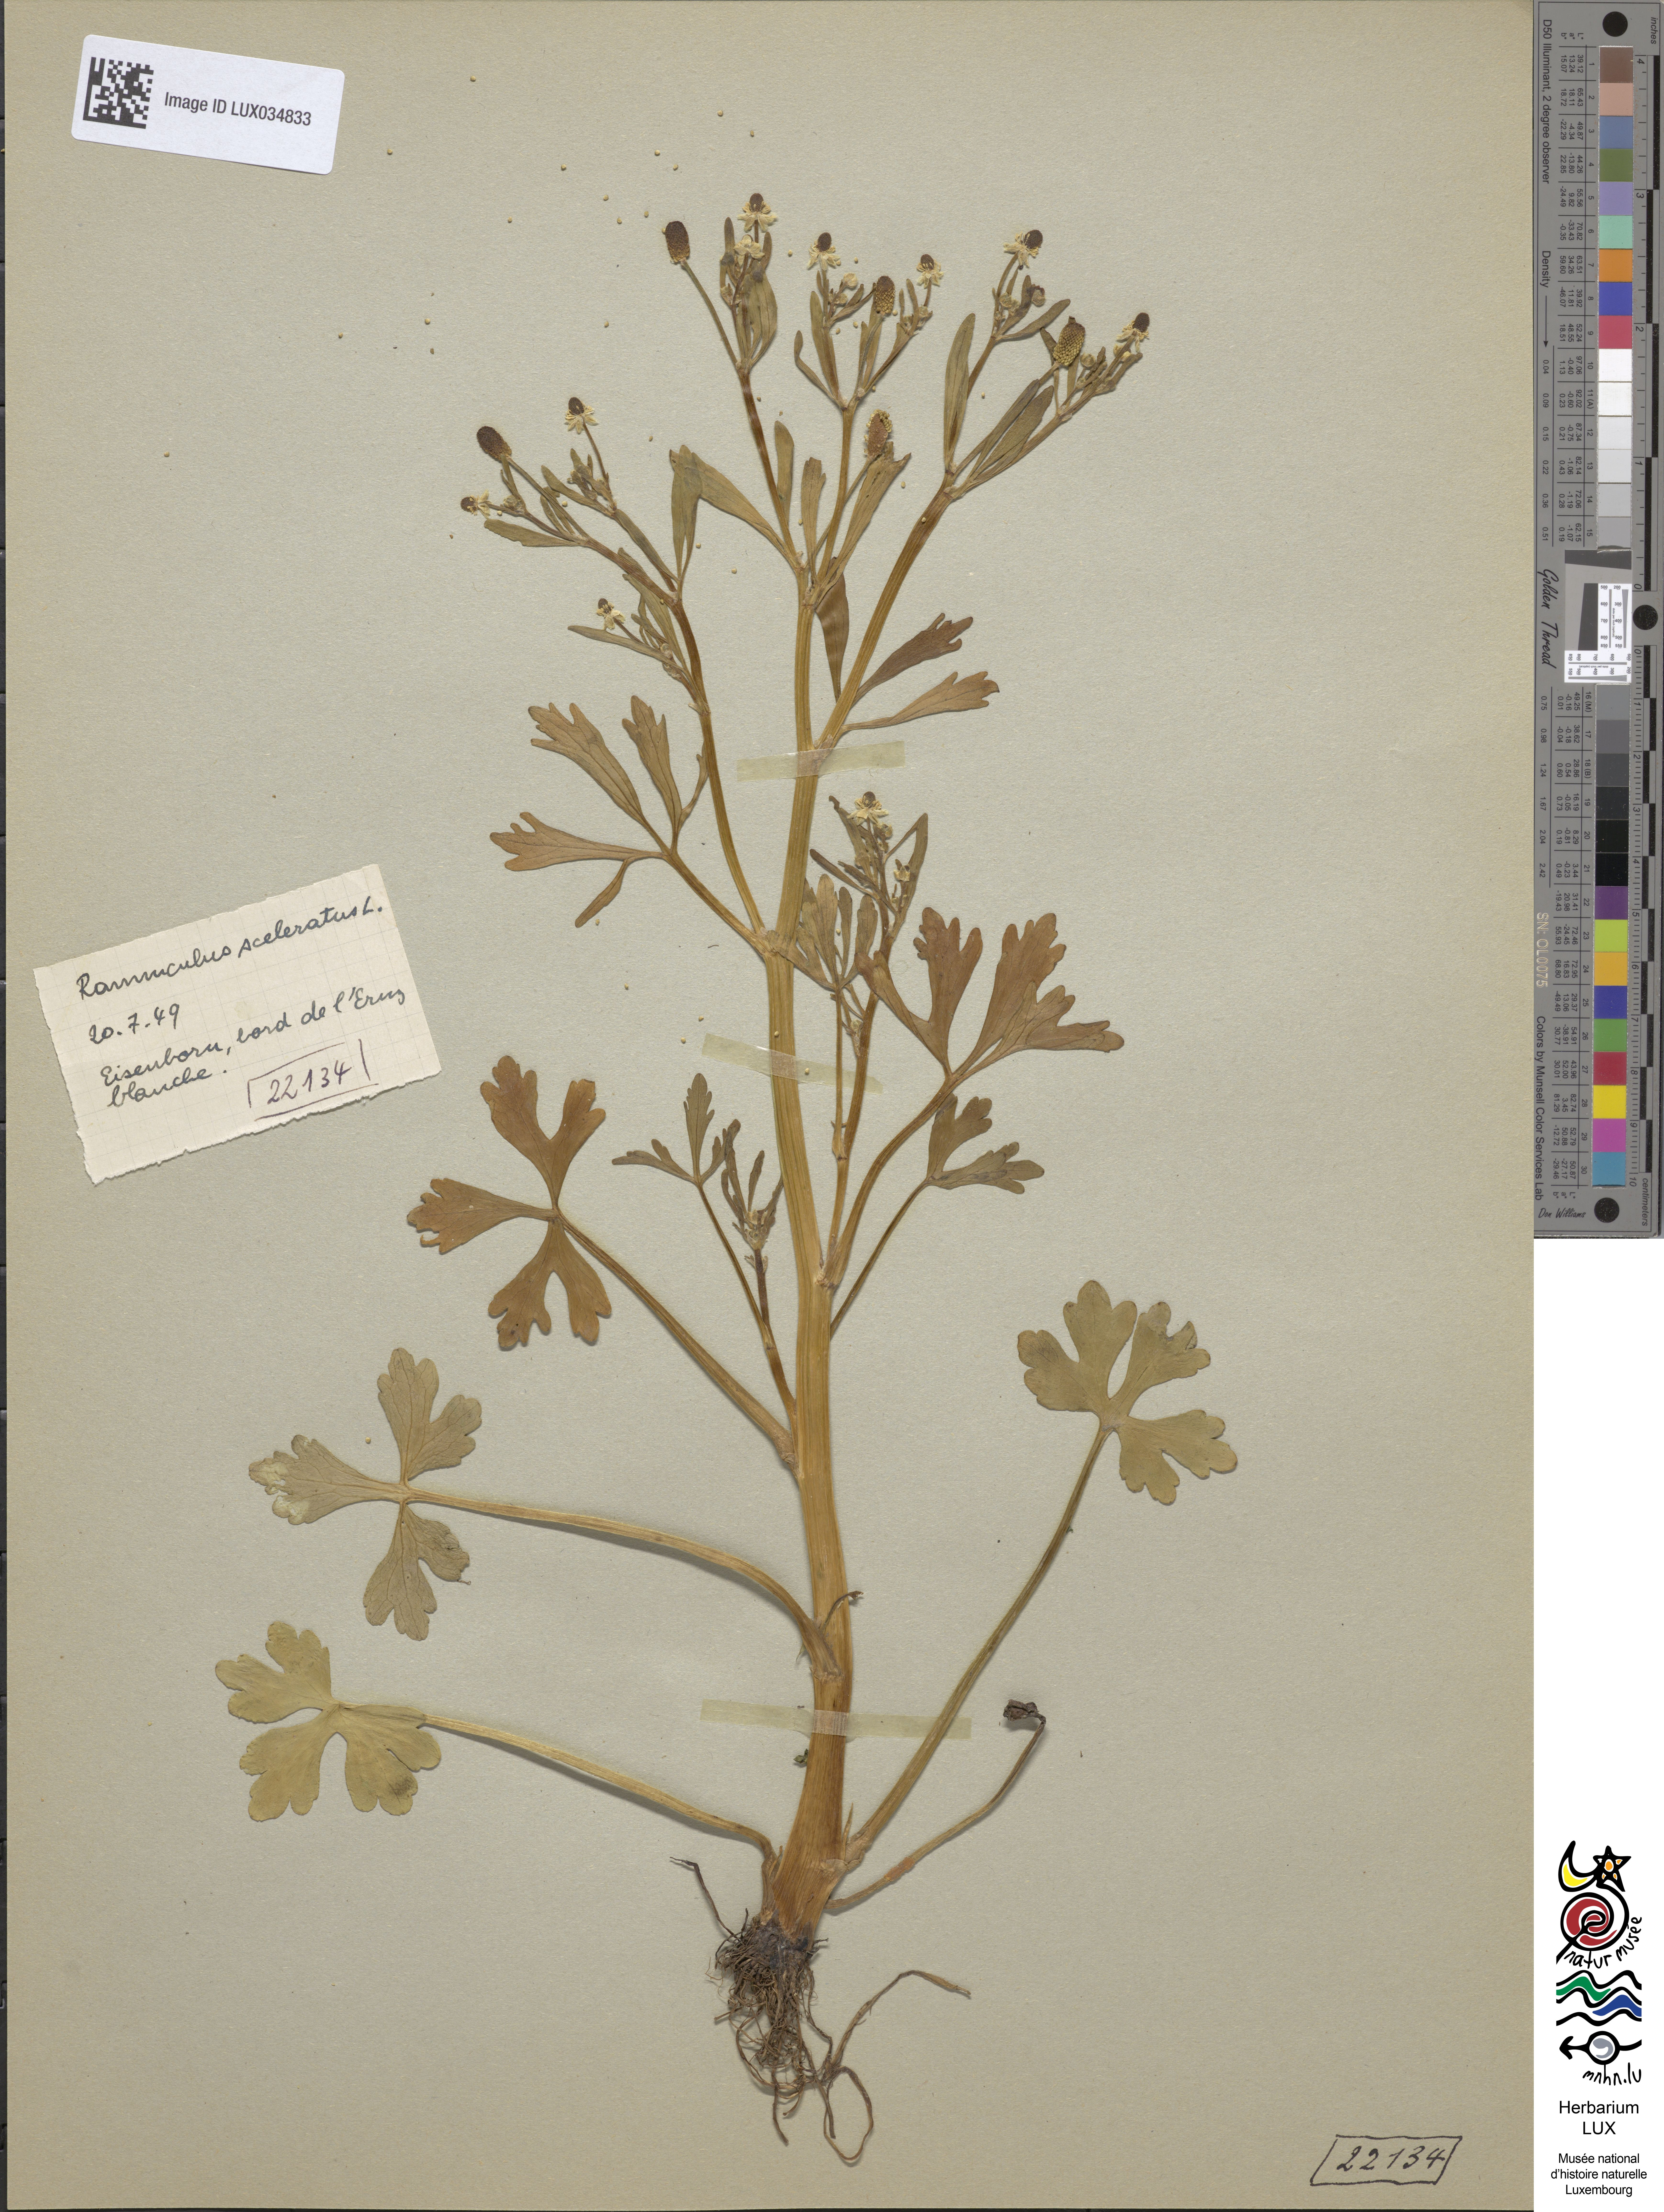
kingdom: Plantae
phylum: Tracheophyta
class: Magnoliopsida
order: Ranunculales
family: Ranunculaceae
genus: Ranunculus
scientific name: Ranunculus sceleratus
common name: Celery-leaved buttercup
